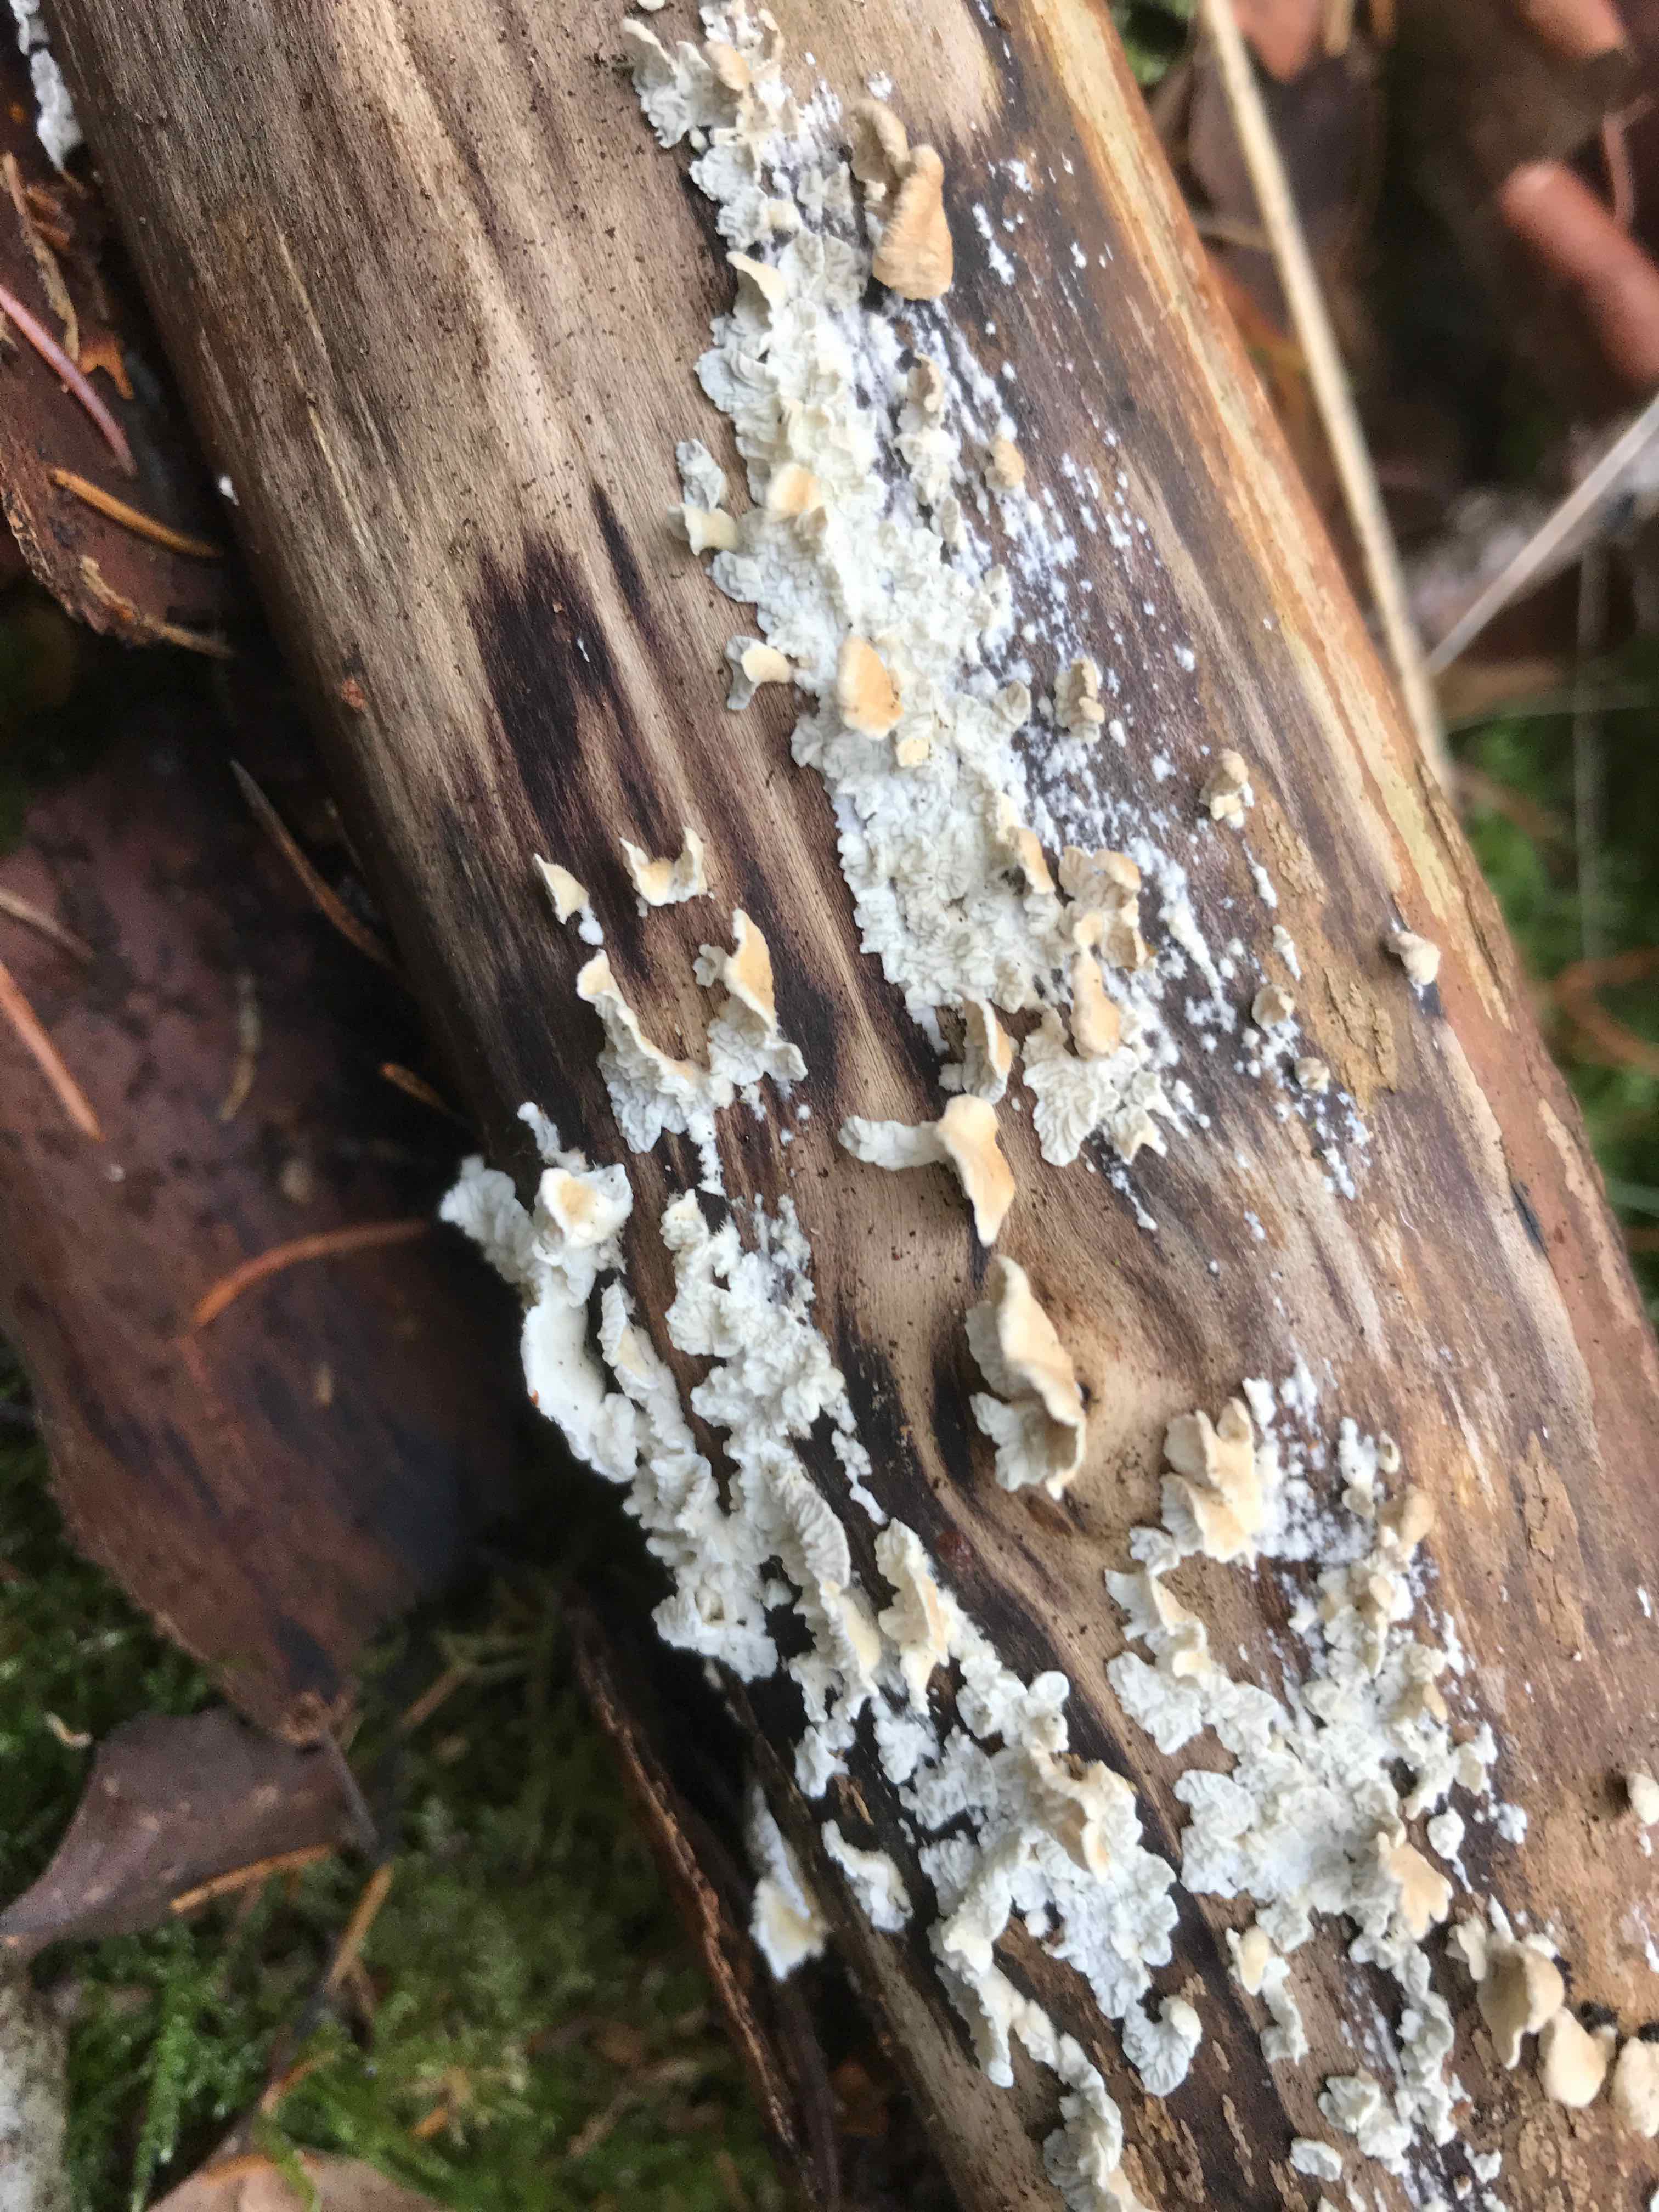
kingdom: Fungi
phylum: Basidiomycota
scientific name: Basidiomycota
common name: basidiesvampe
